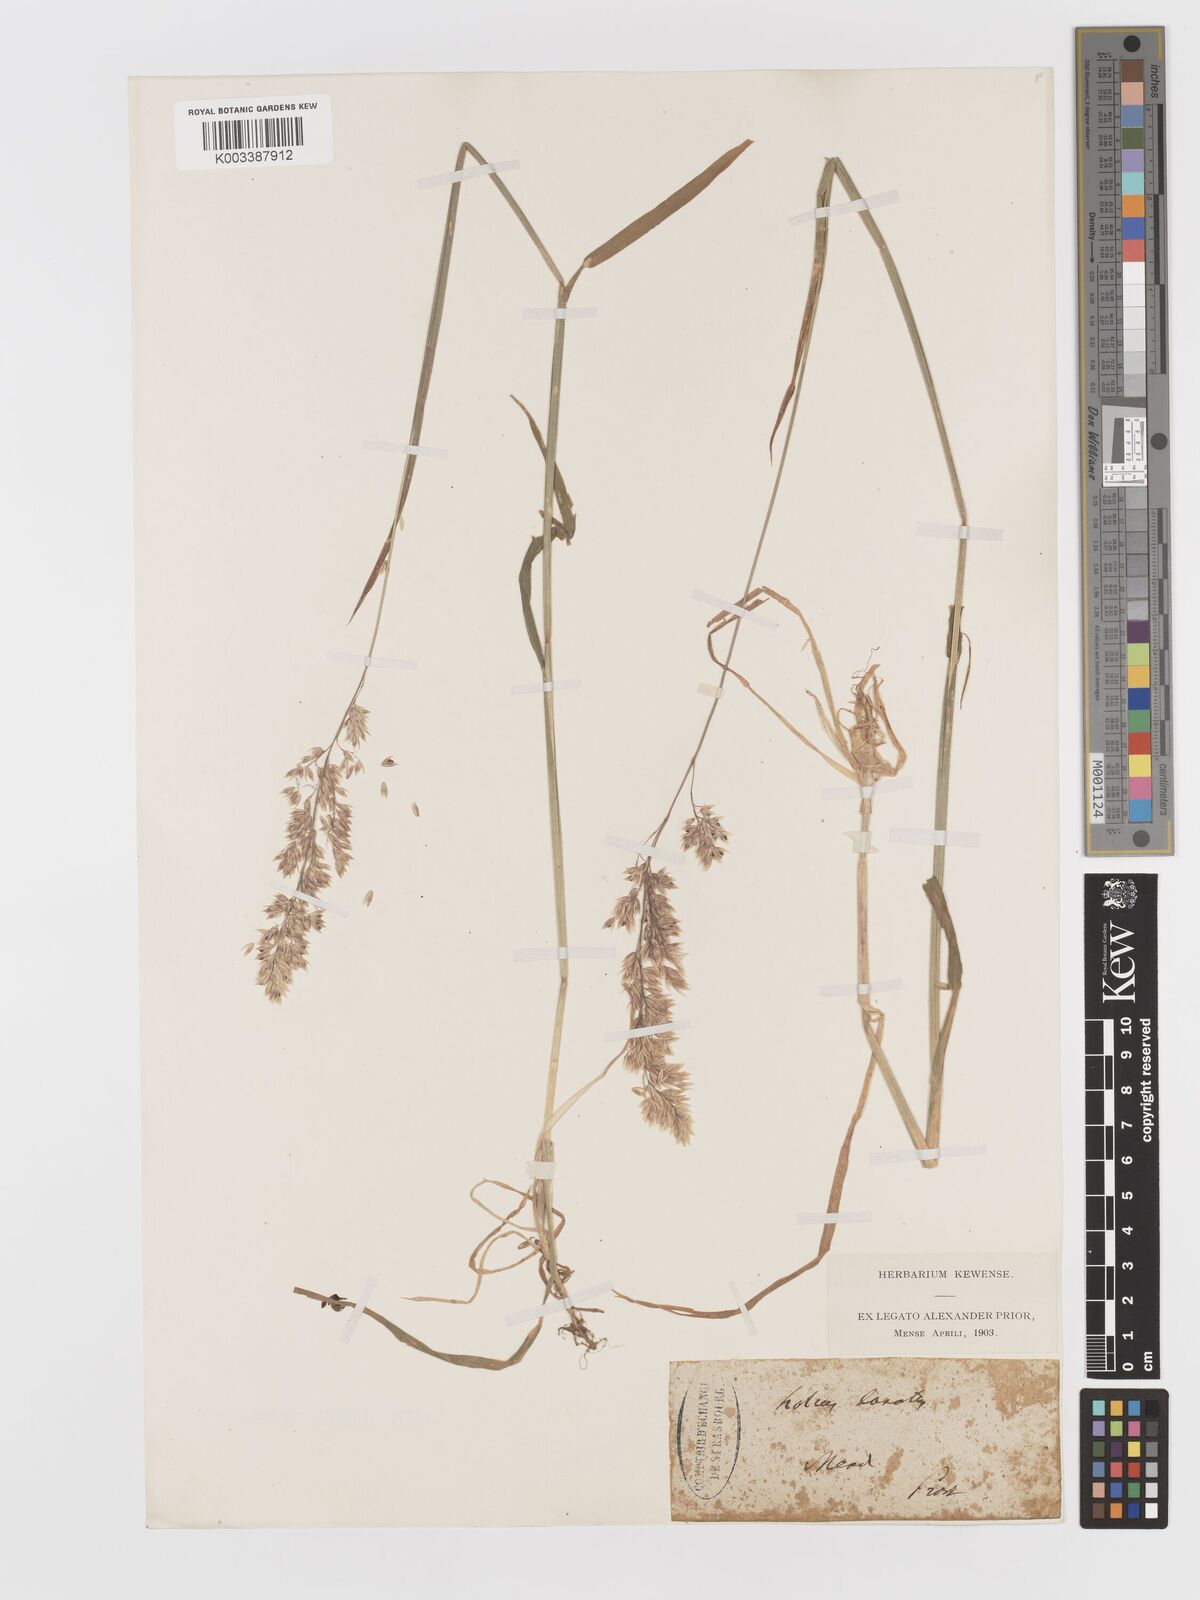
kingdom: Plantae
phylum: Tracheophyta
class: Liliopsida
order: Poales
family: Poaceae
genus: Holcus
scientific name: Holcus lanatus
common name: Yorkshire-fog
